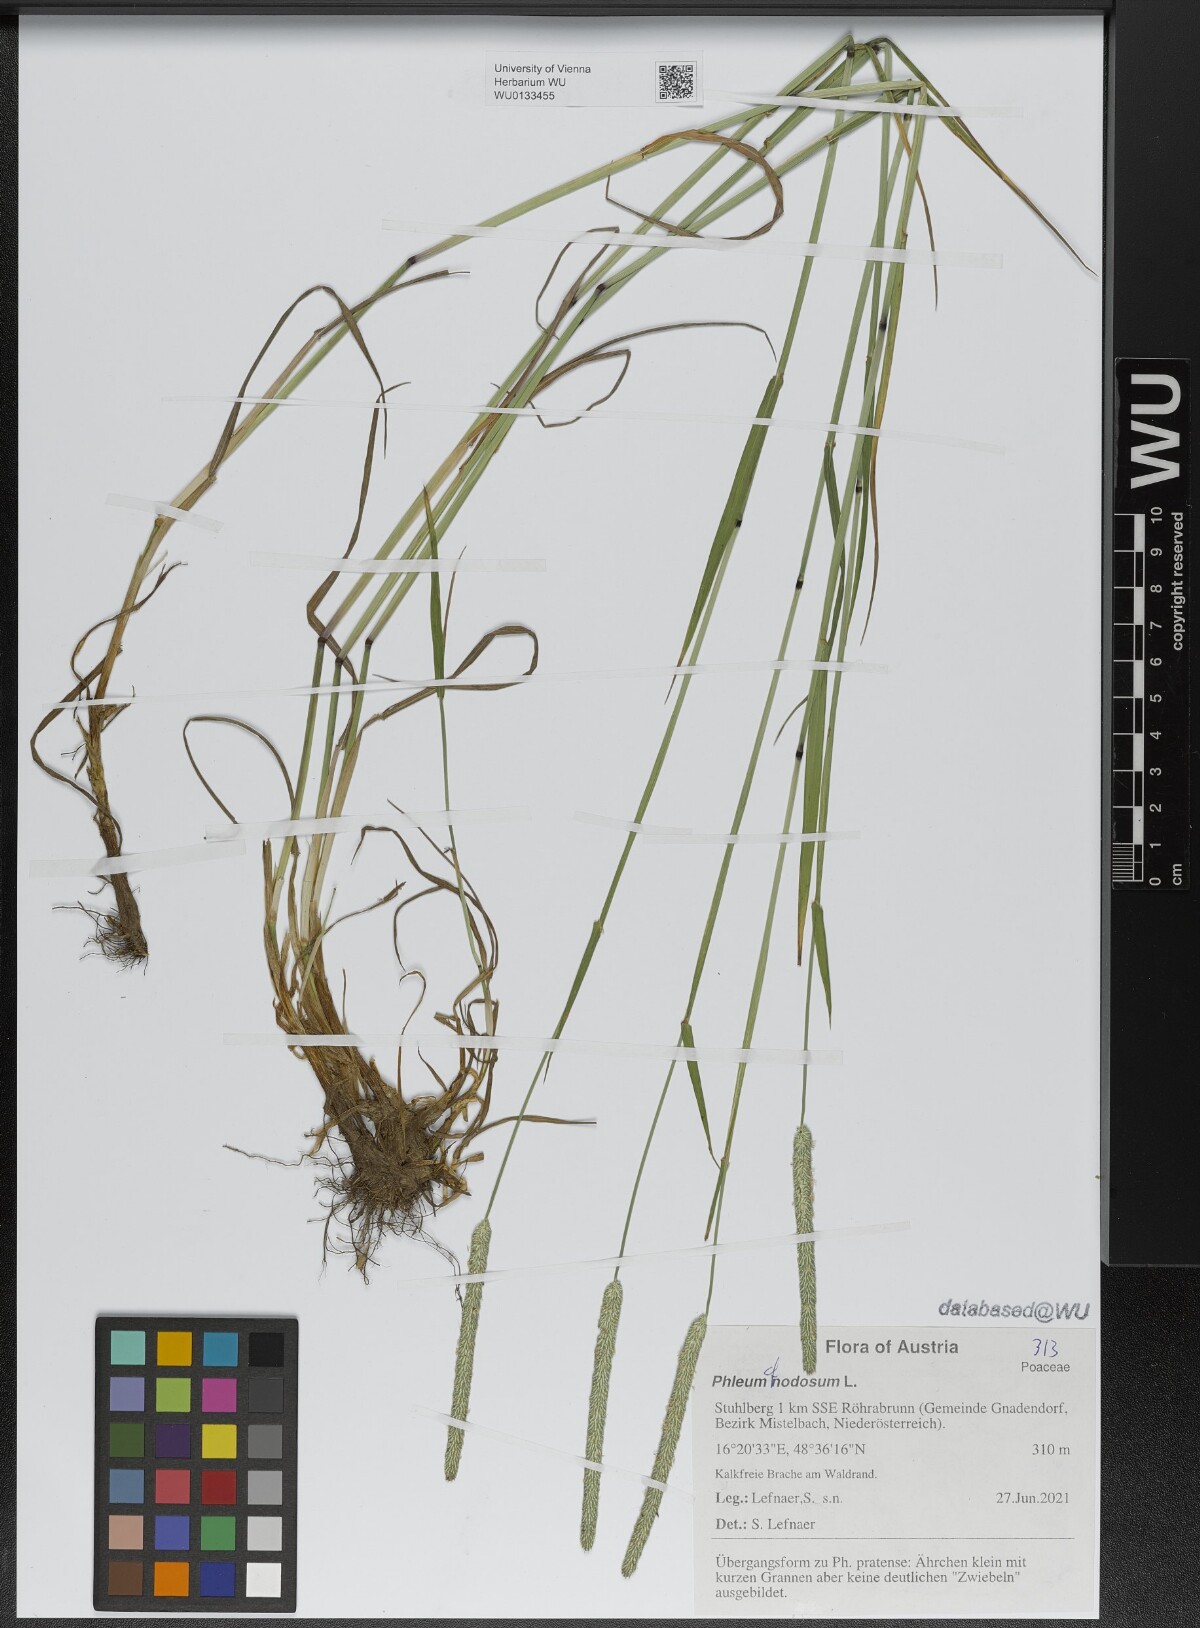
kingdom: Plantae
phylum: Tracheophyta
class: Liliopsida
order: Poales
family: Poaceae
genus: Phleum
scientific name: Phleum pratense
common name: Timothy grass
